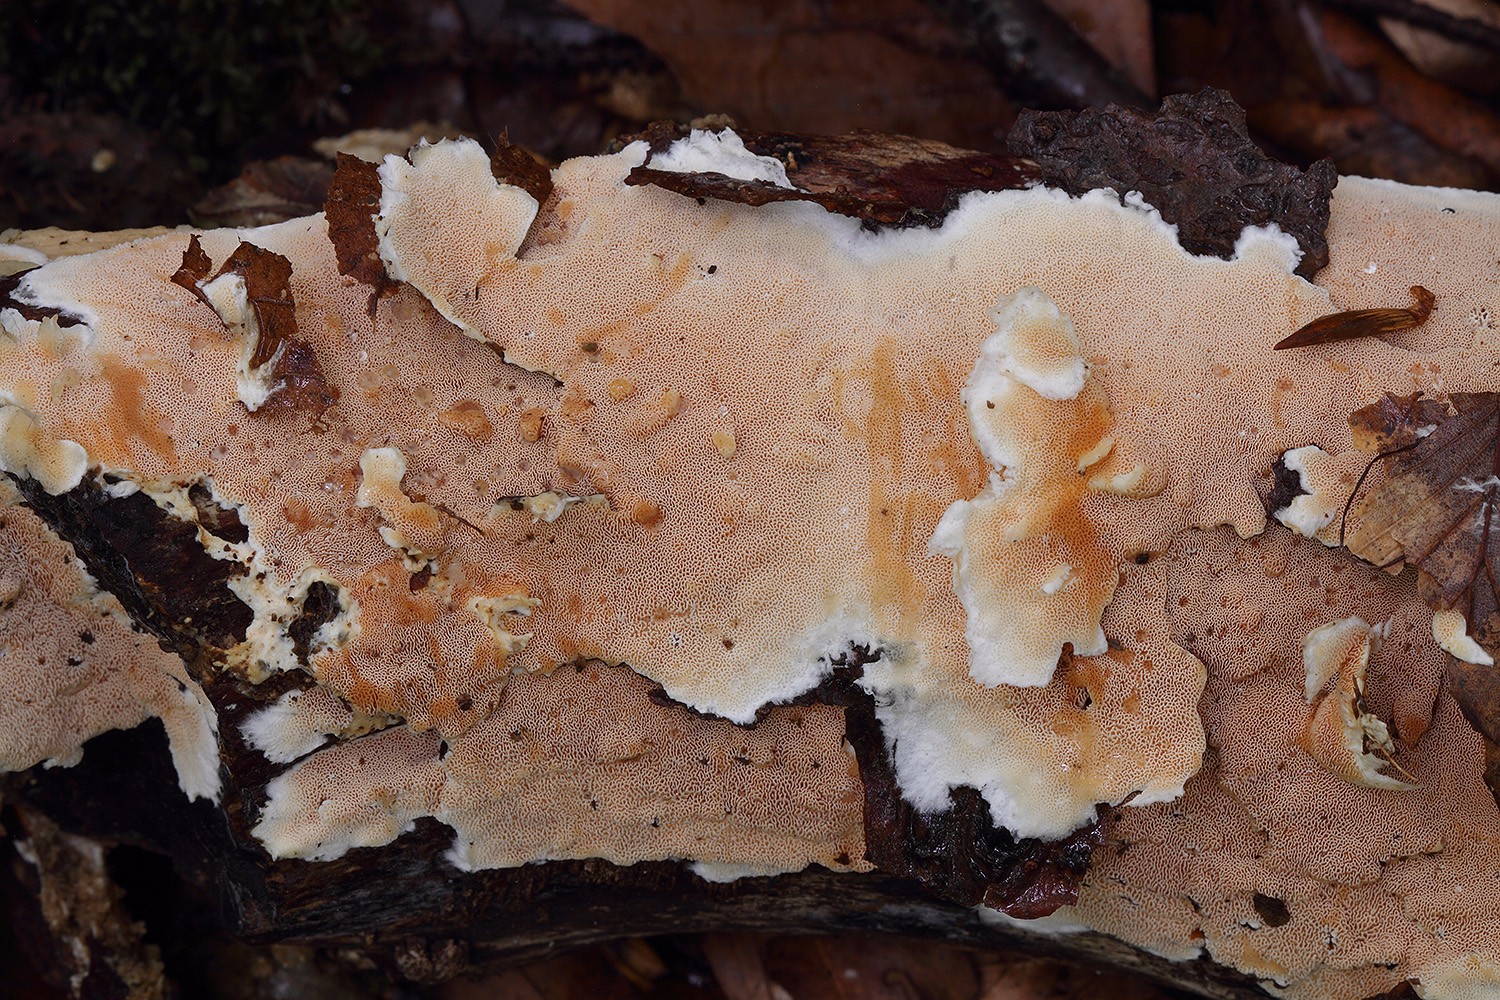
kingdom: Fungi
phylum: Basidiomycota
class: Agaricomycetes
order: Polyporales
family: Steccherinaceae
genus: Junghuhnia
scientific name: Junghuhnia nitida
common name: almindelig skønporesvamp
